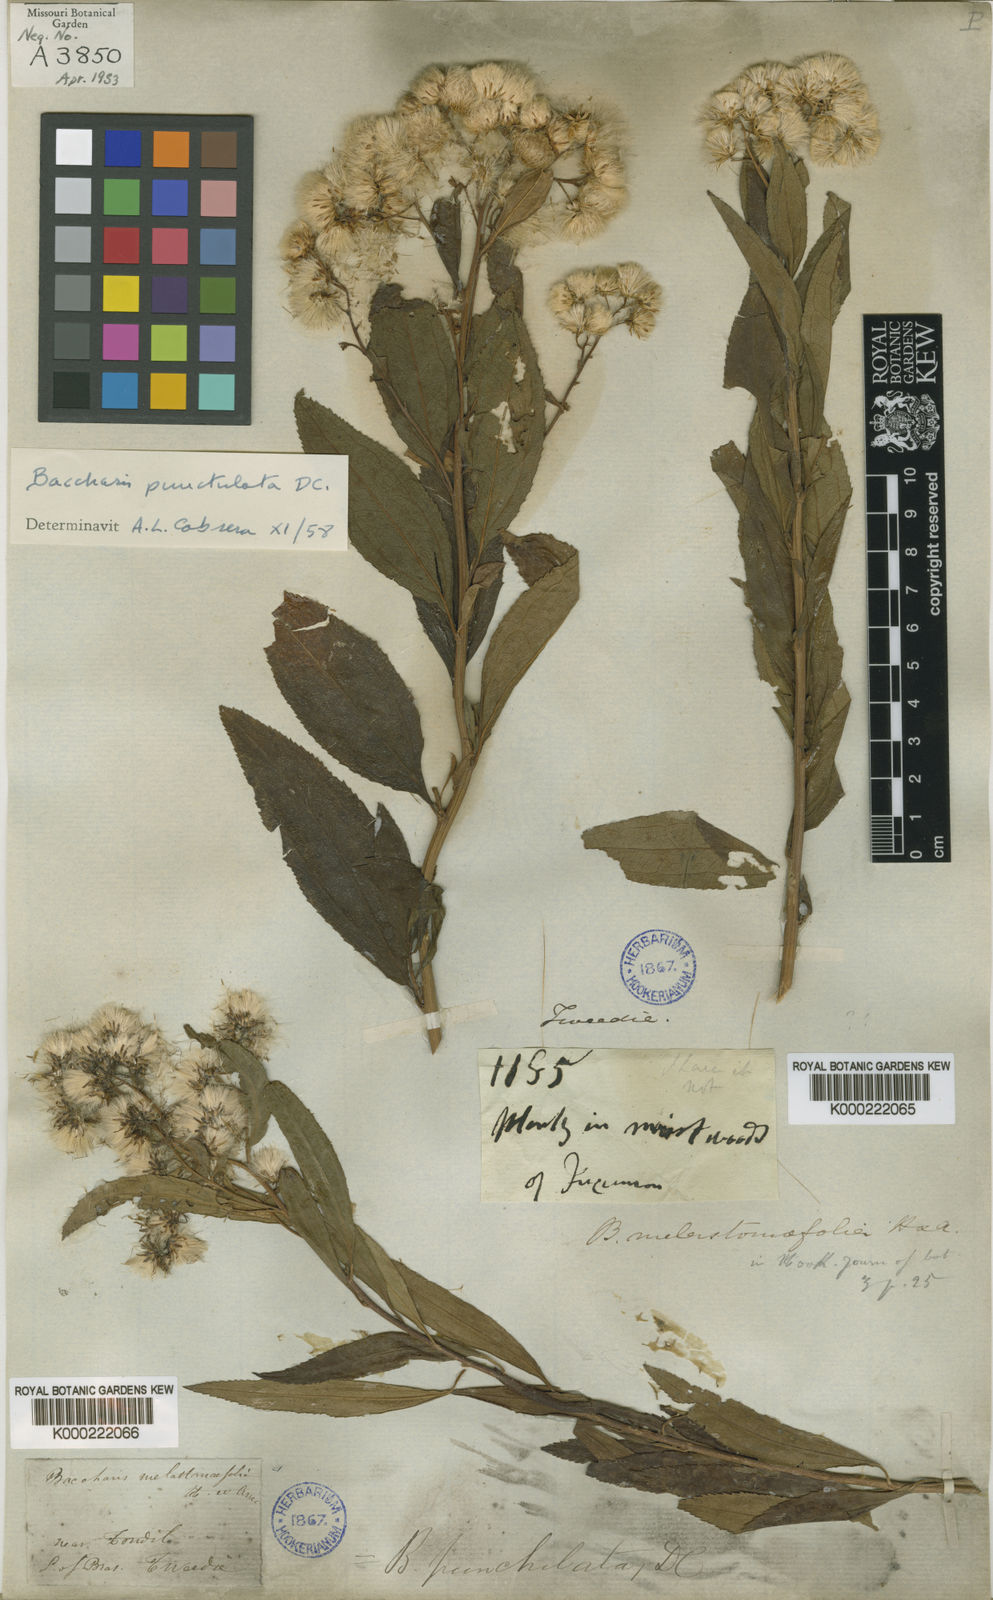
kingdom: Plantae
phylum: Tracheophyta
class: Magnoliopsida
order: Asterales
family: Asteraceae
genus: Baccharis
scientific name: Baccharis punctulata
